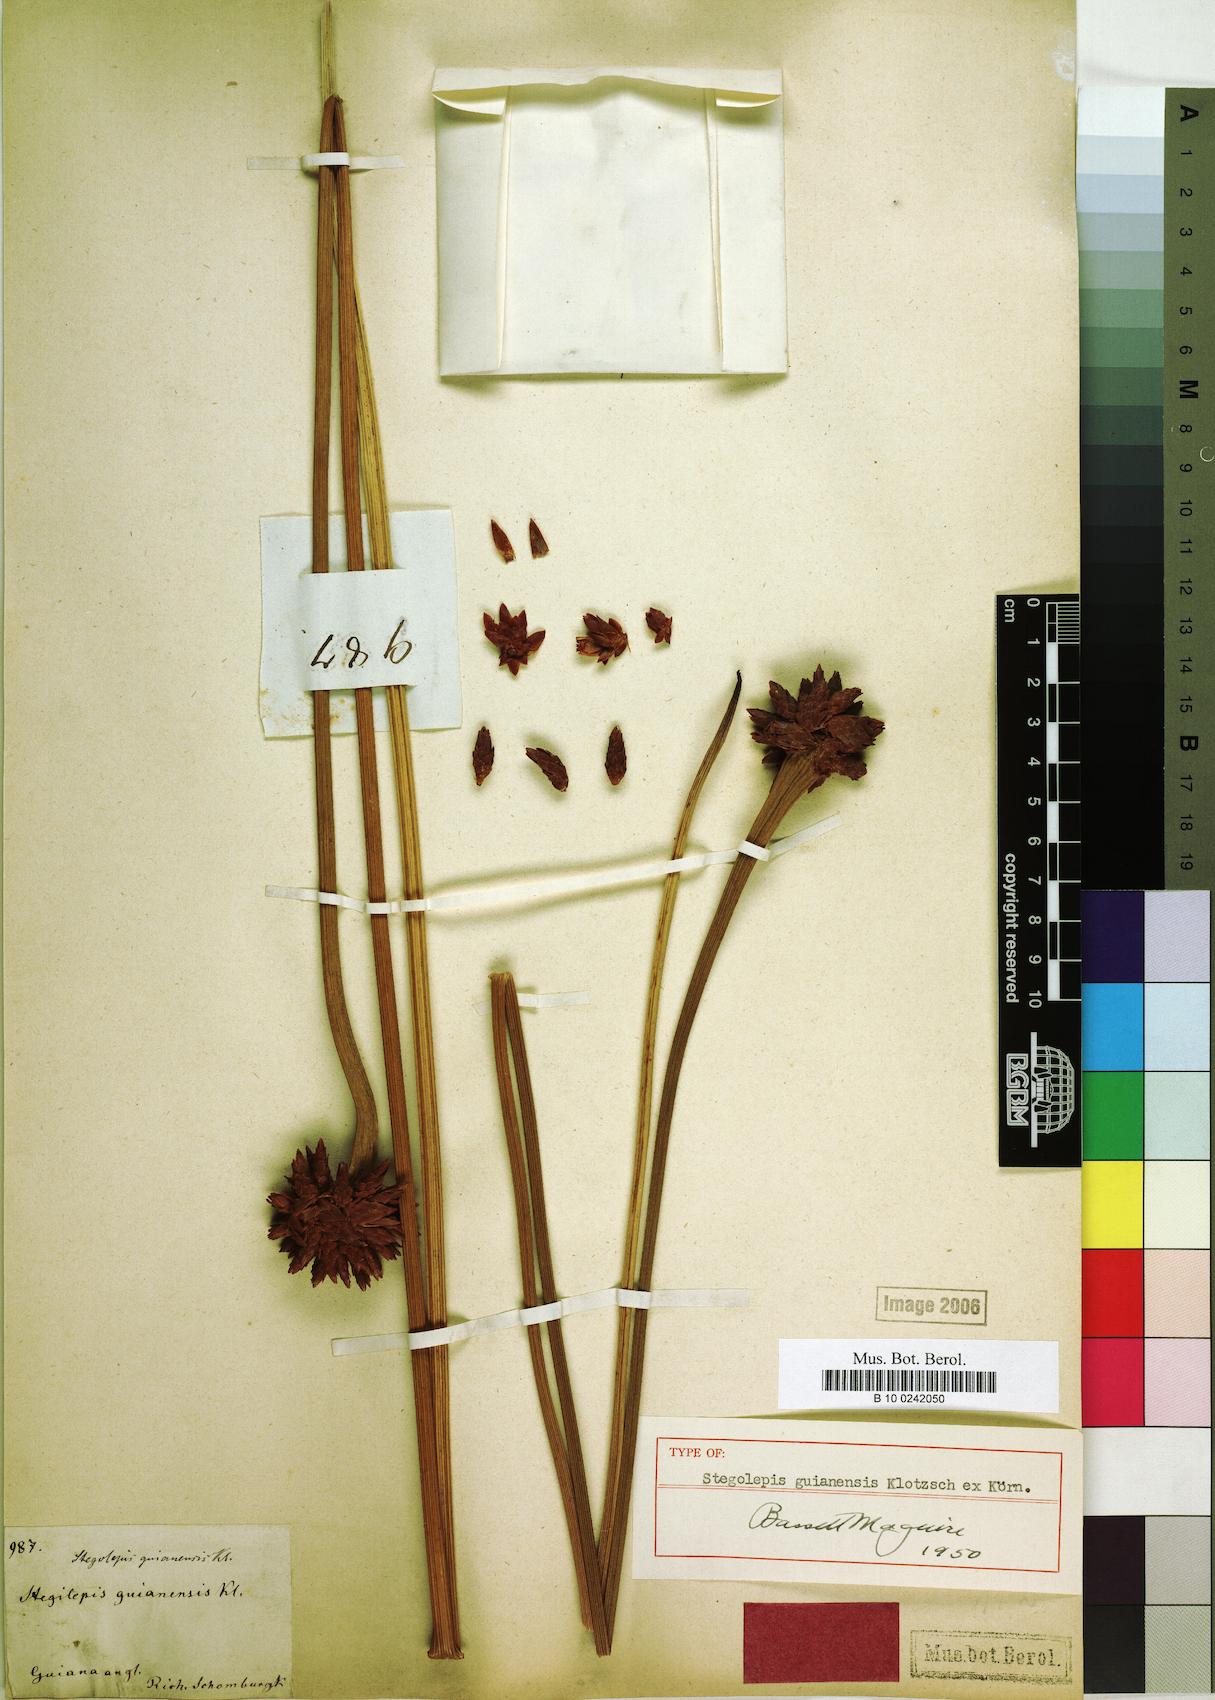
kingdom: Plantae
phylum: Tracheophyta
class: Liliopsida
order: Poales
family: Rapateaceae
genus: Stegolepis
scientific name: Stegolepis guianensis
